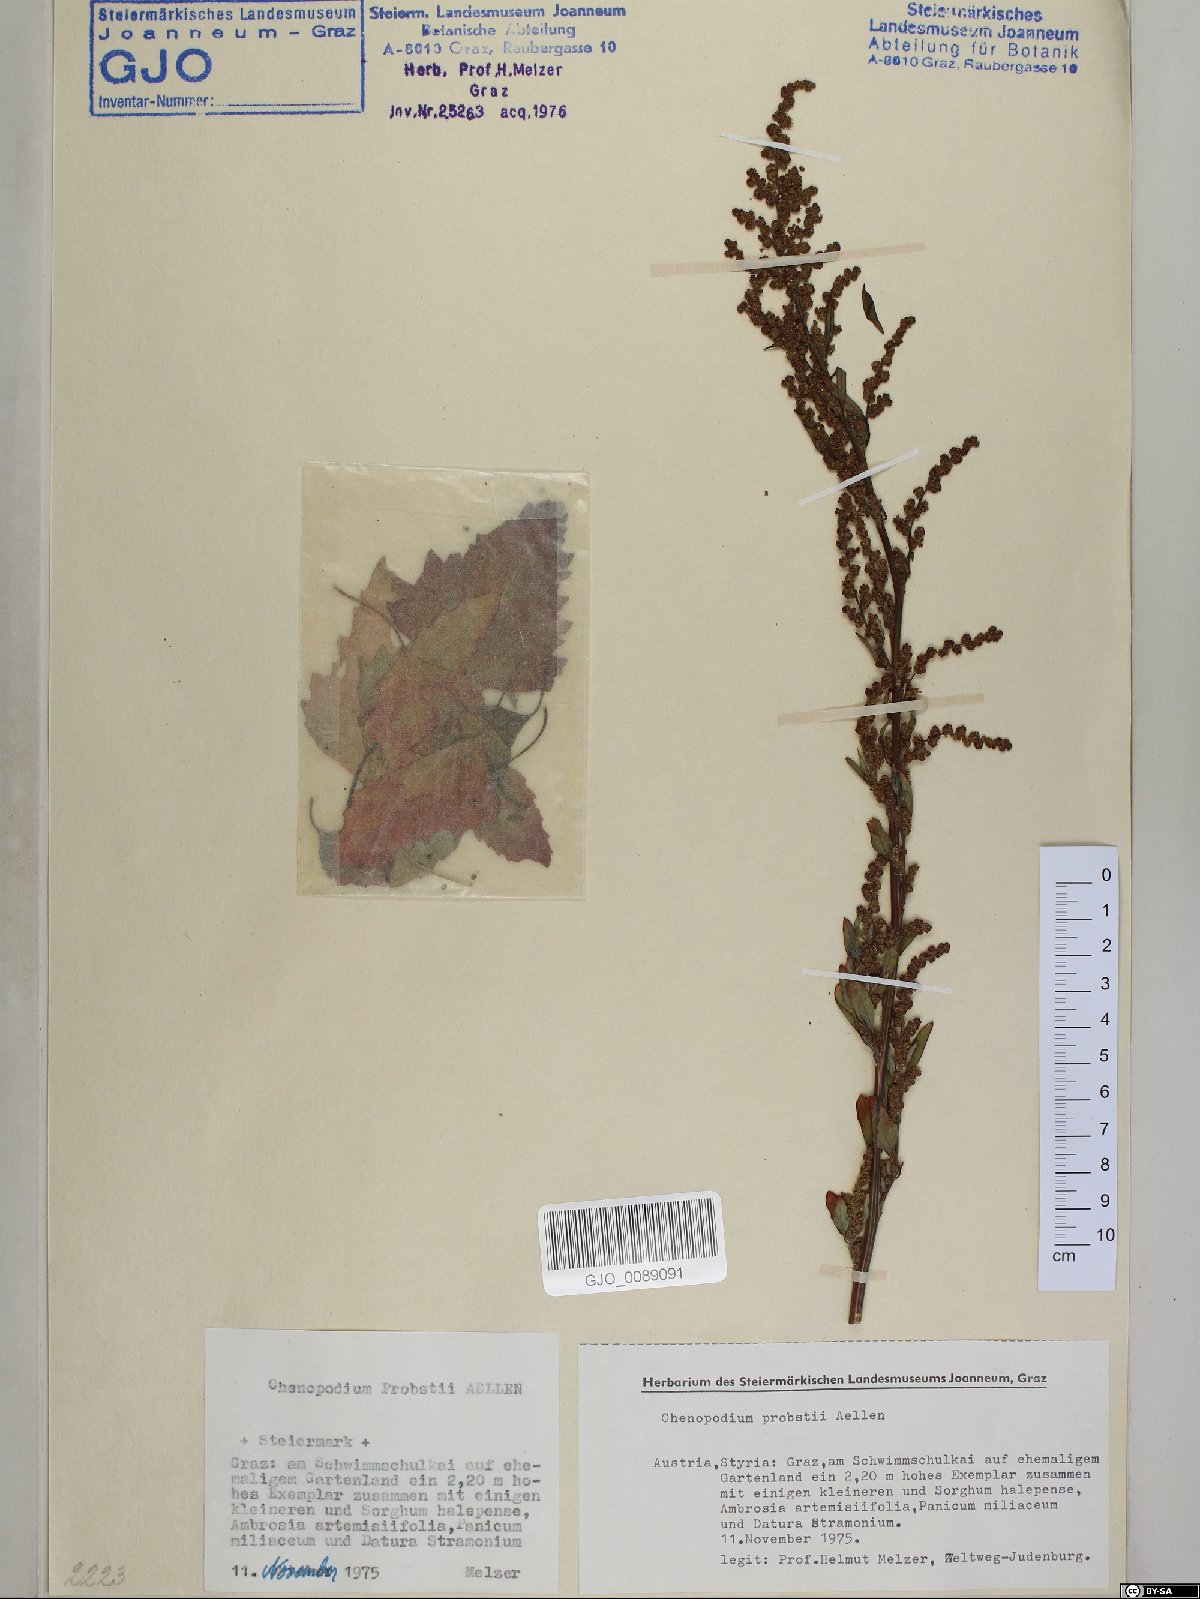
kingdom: Plantae
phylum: Tracheophyta
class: Magnoliopsida
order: Caryophyllales
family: Amaranthaceae
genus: Chenopodium
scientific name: Chenopodium probstii
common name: Probst's goosefoot
